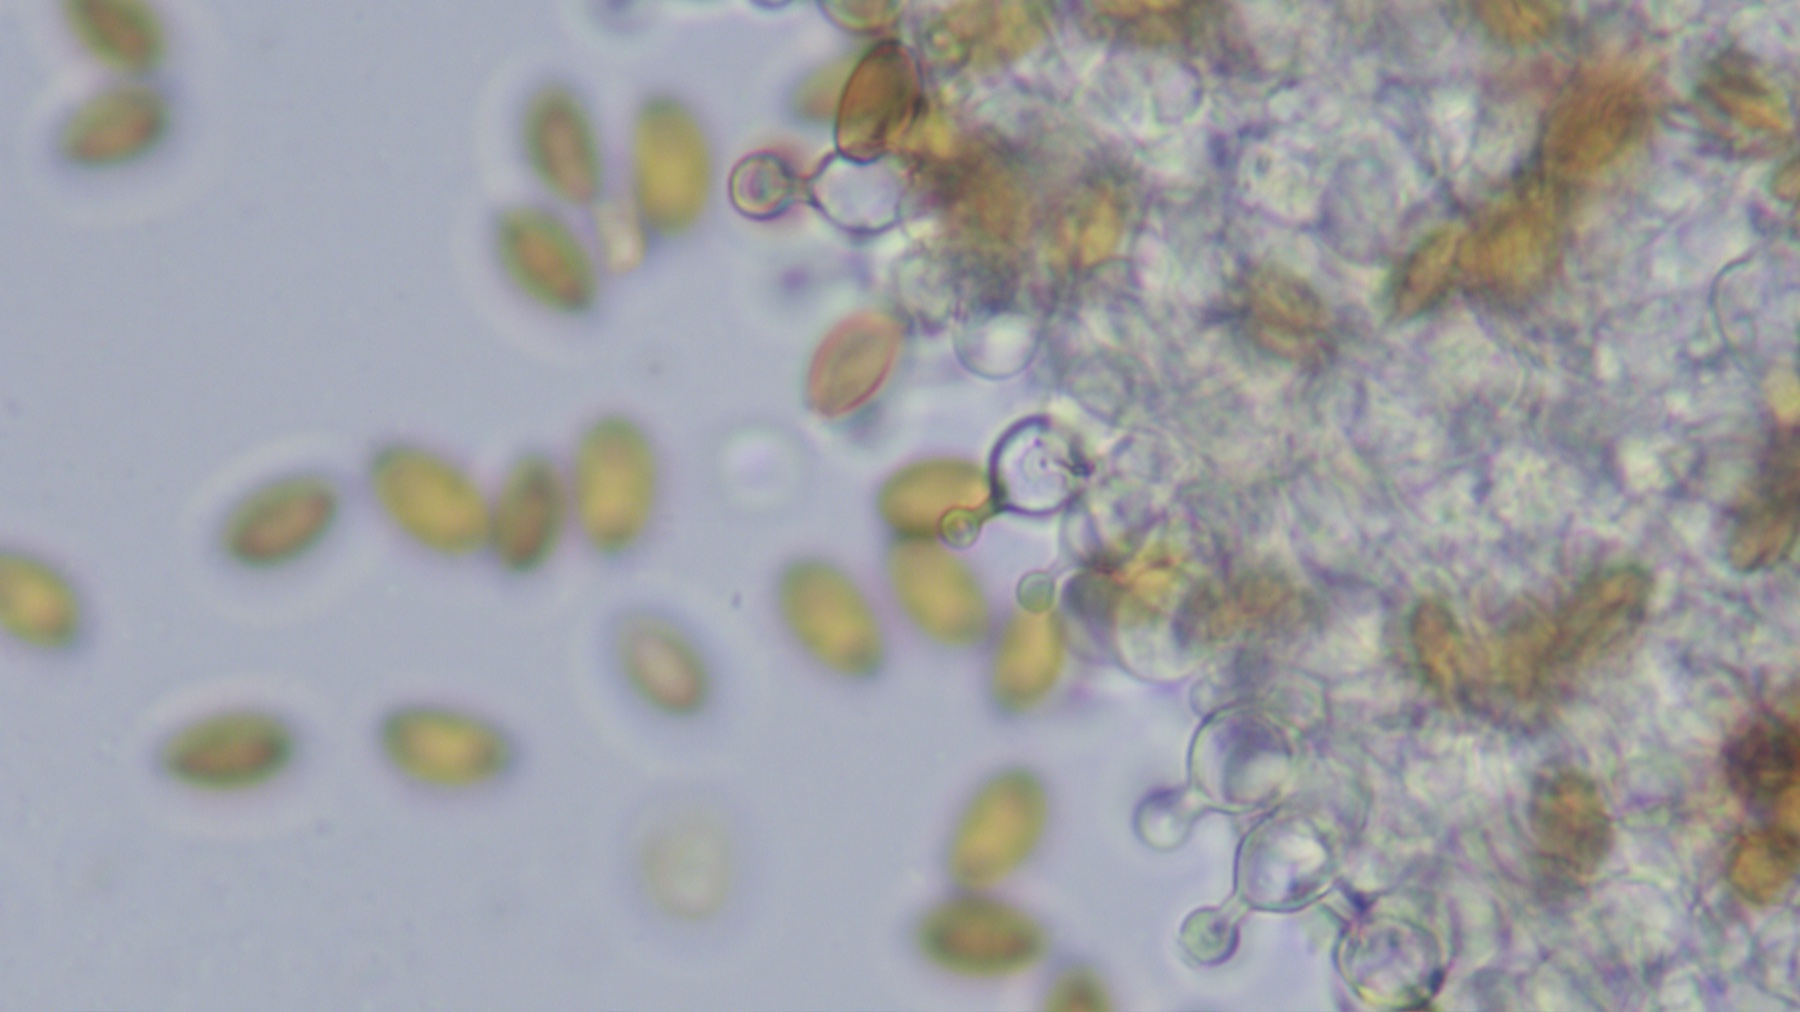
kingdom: Fungi
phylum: Basidiomycota
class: Agaricomycetes
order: Agaricales
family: Bolbitiaceae
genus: Conocybe
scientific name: Conocybe tenera
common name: rank keglehat
